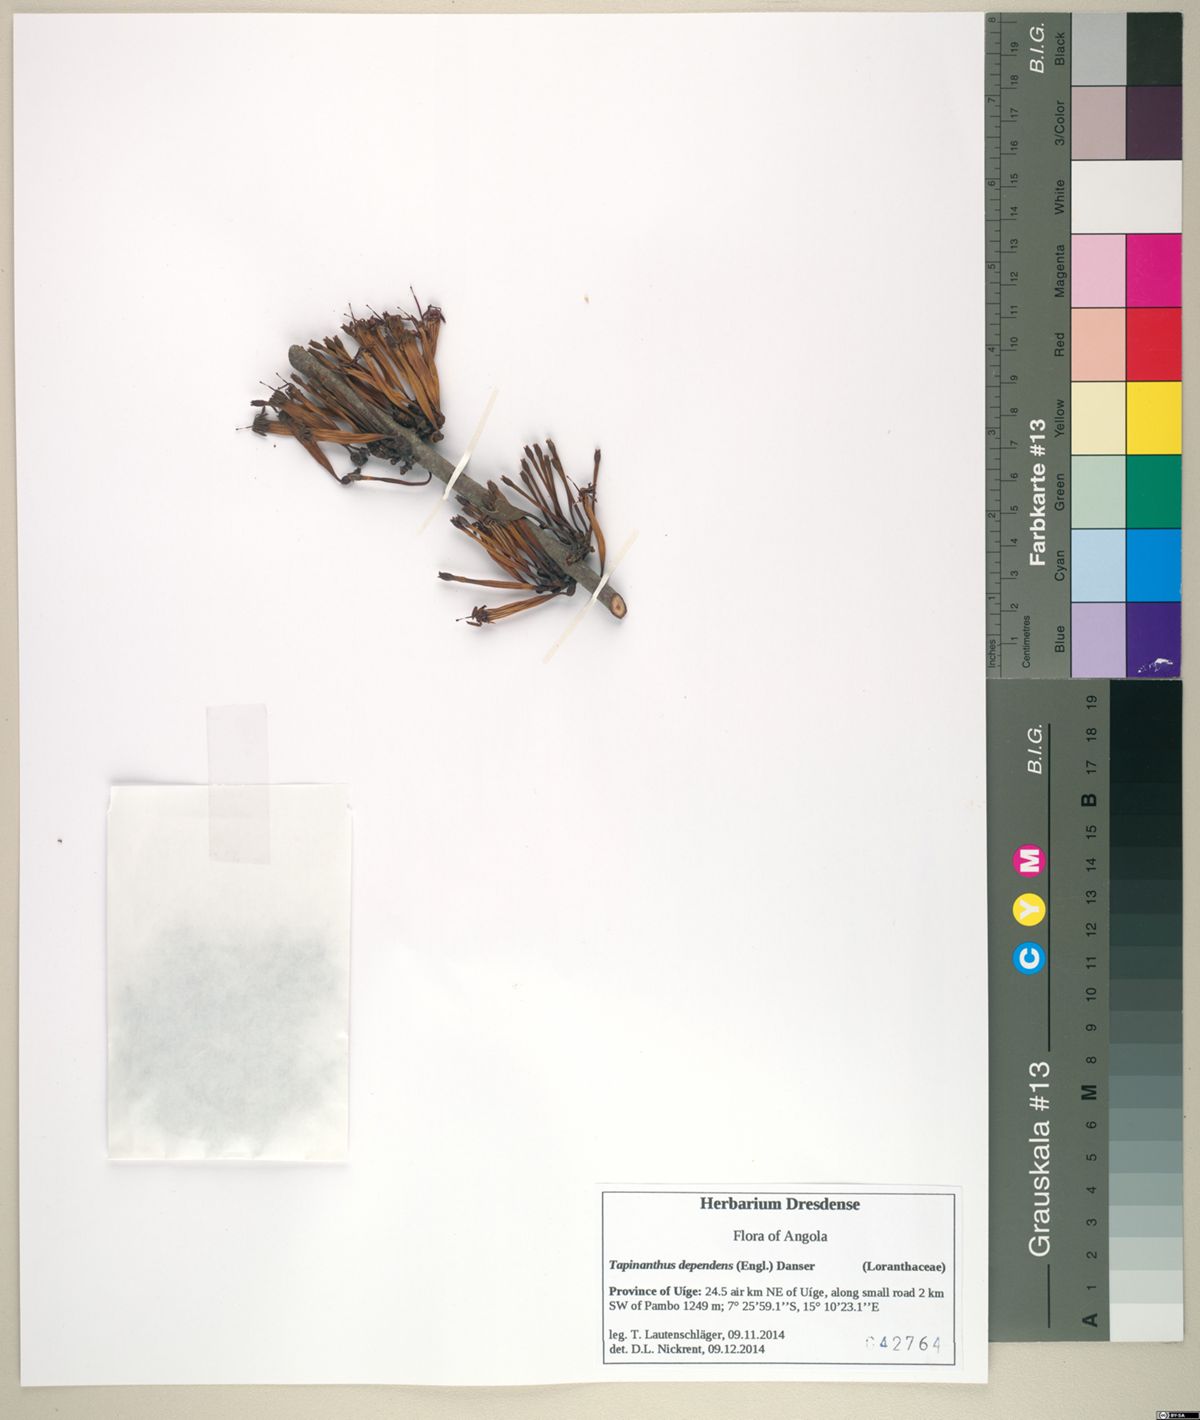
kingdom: Plantae
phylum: Tracheophyta
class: Magnoliopsida
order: Santalales
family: Loranthaceae
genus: Tapinanthus
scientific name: Tapinanthus dependens
